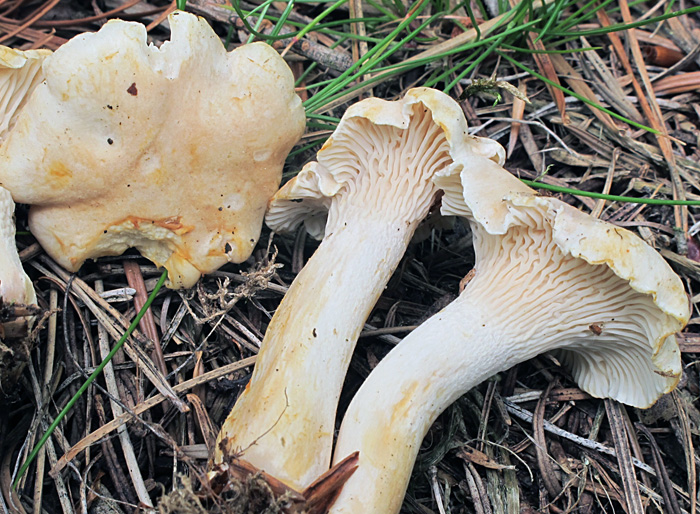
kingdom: Fungi
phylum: Basidiomycota
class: Agaricomycetes
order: Cantharellales
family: Hydnaceae
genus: Cantharellus
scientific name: Cantharellus cibarius
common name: almindelig kantarel
